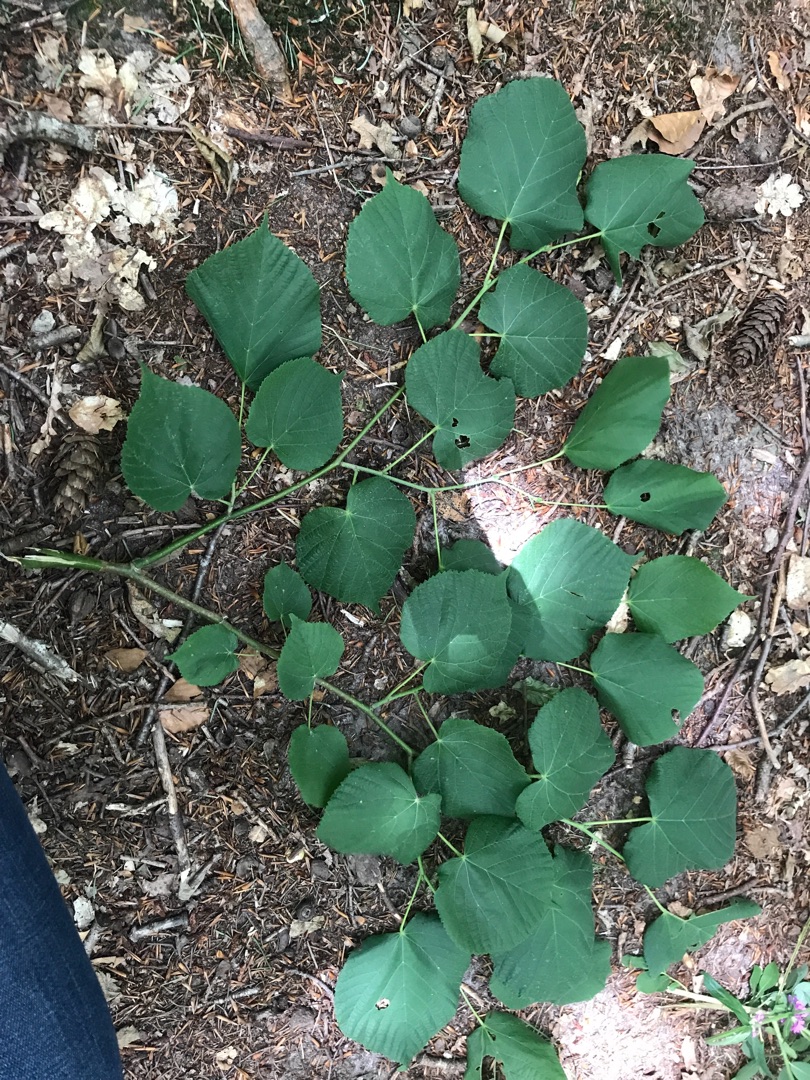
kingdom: Plantae
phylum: Tracheophyta
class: Magnoliopsida
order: Malvales
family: Malvaceae
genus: Tilia
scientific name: Tilia platyphyllos
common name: Storbladet lind
